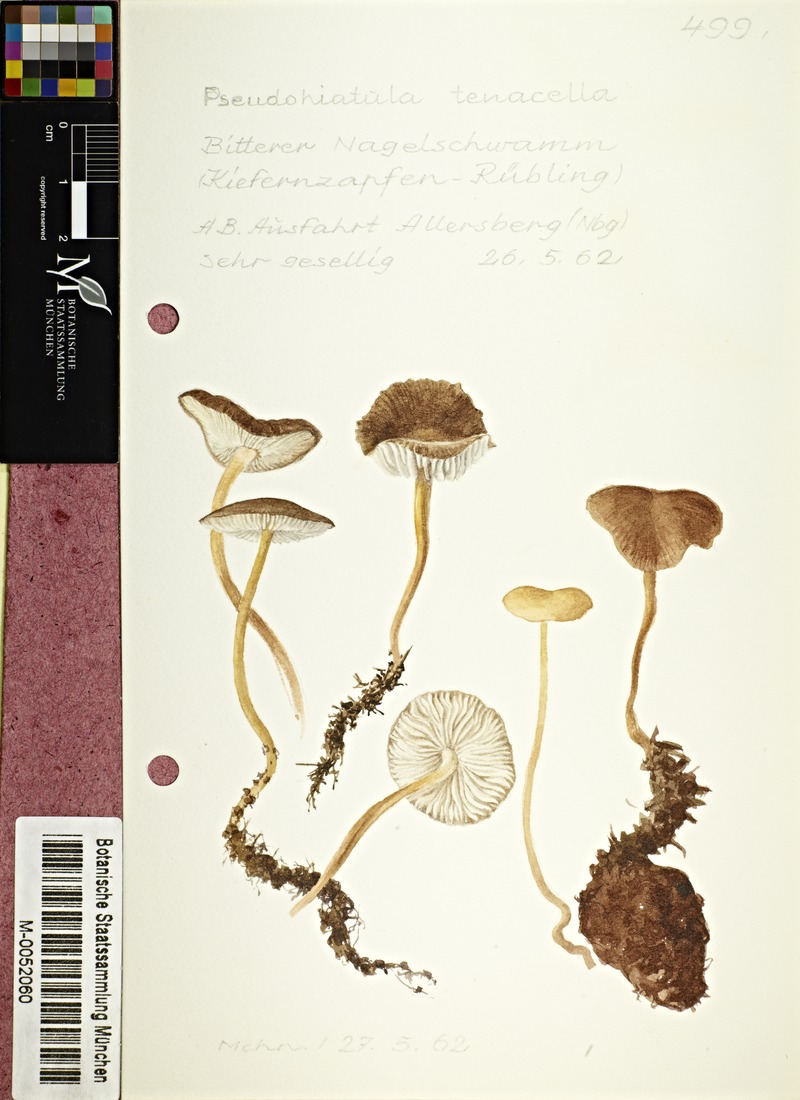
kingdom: Fungi
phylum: Basidiomycota
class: Agaricomycetes
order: Agaricales
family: Physalacriaceae
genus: Strobilurus
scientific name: Strobilurus tenacellus
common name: Pinecone cap
